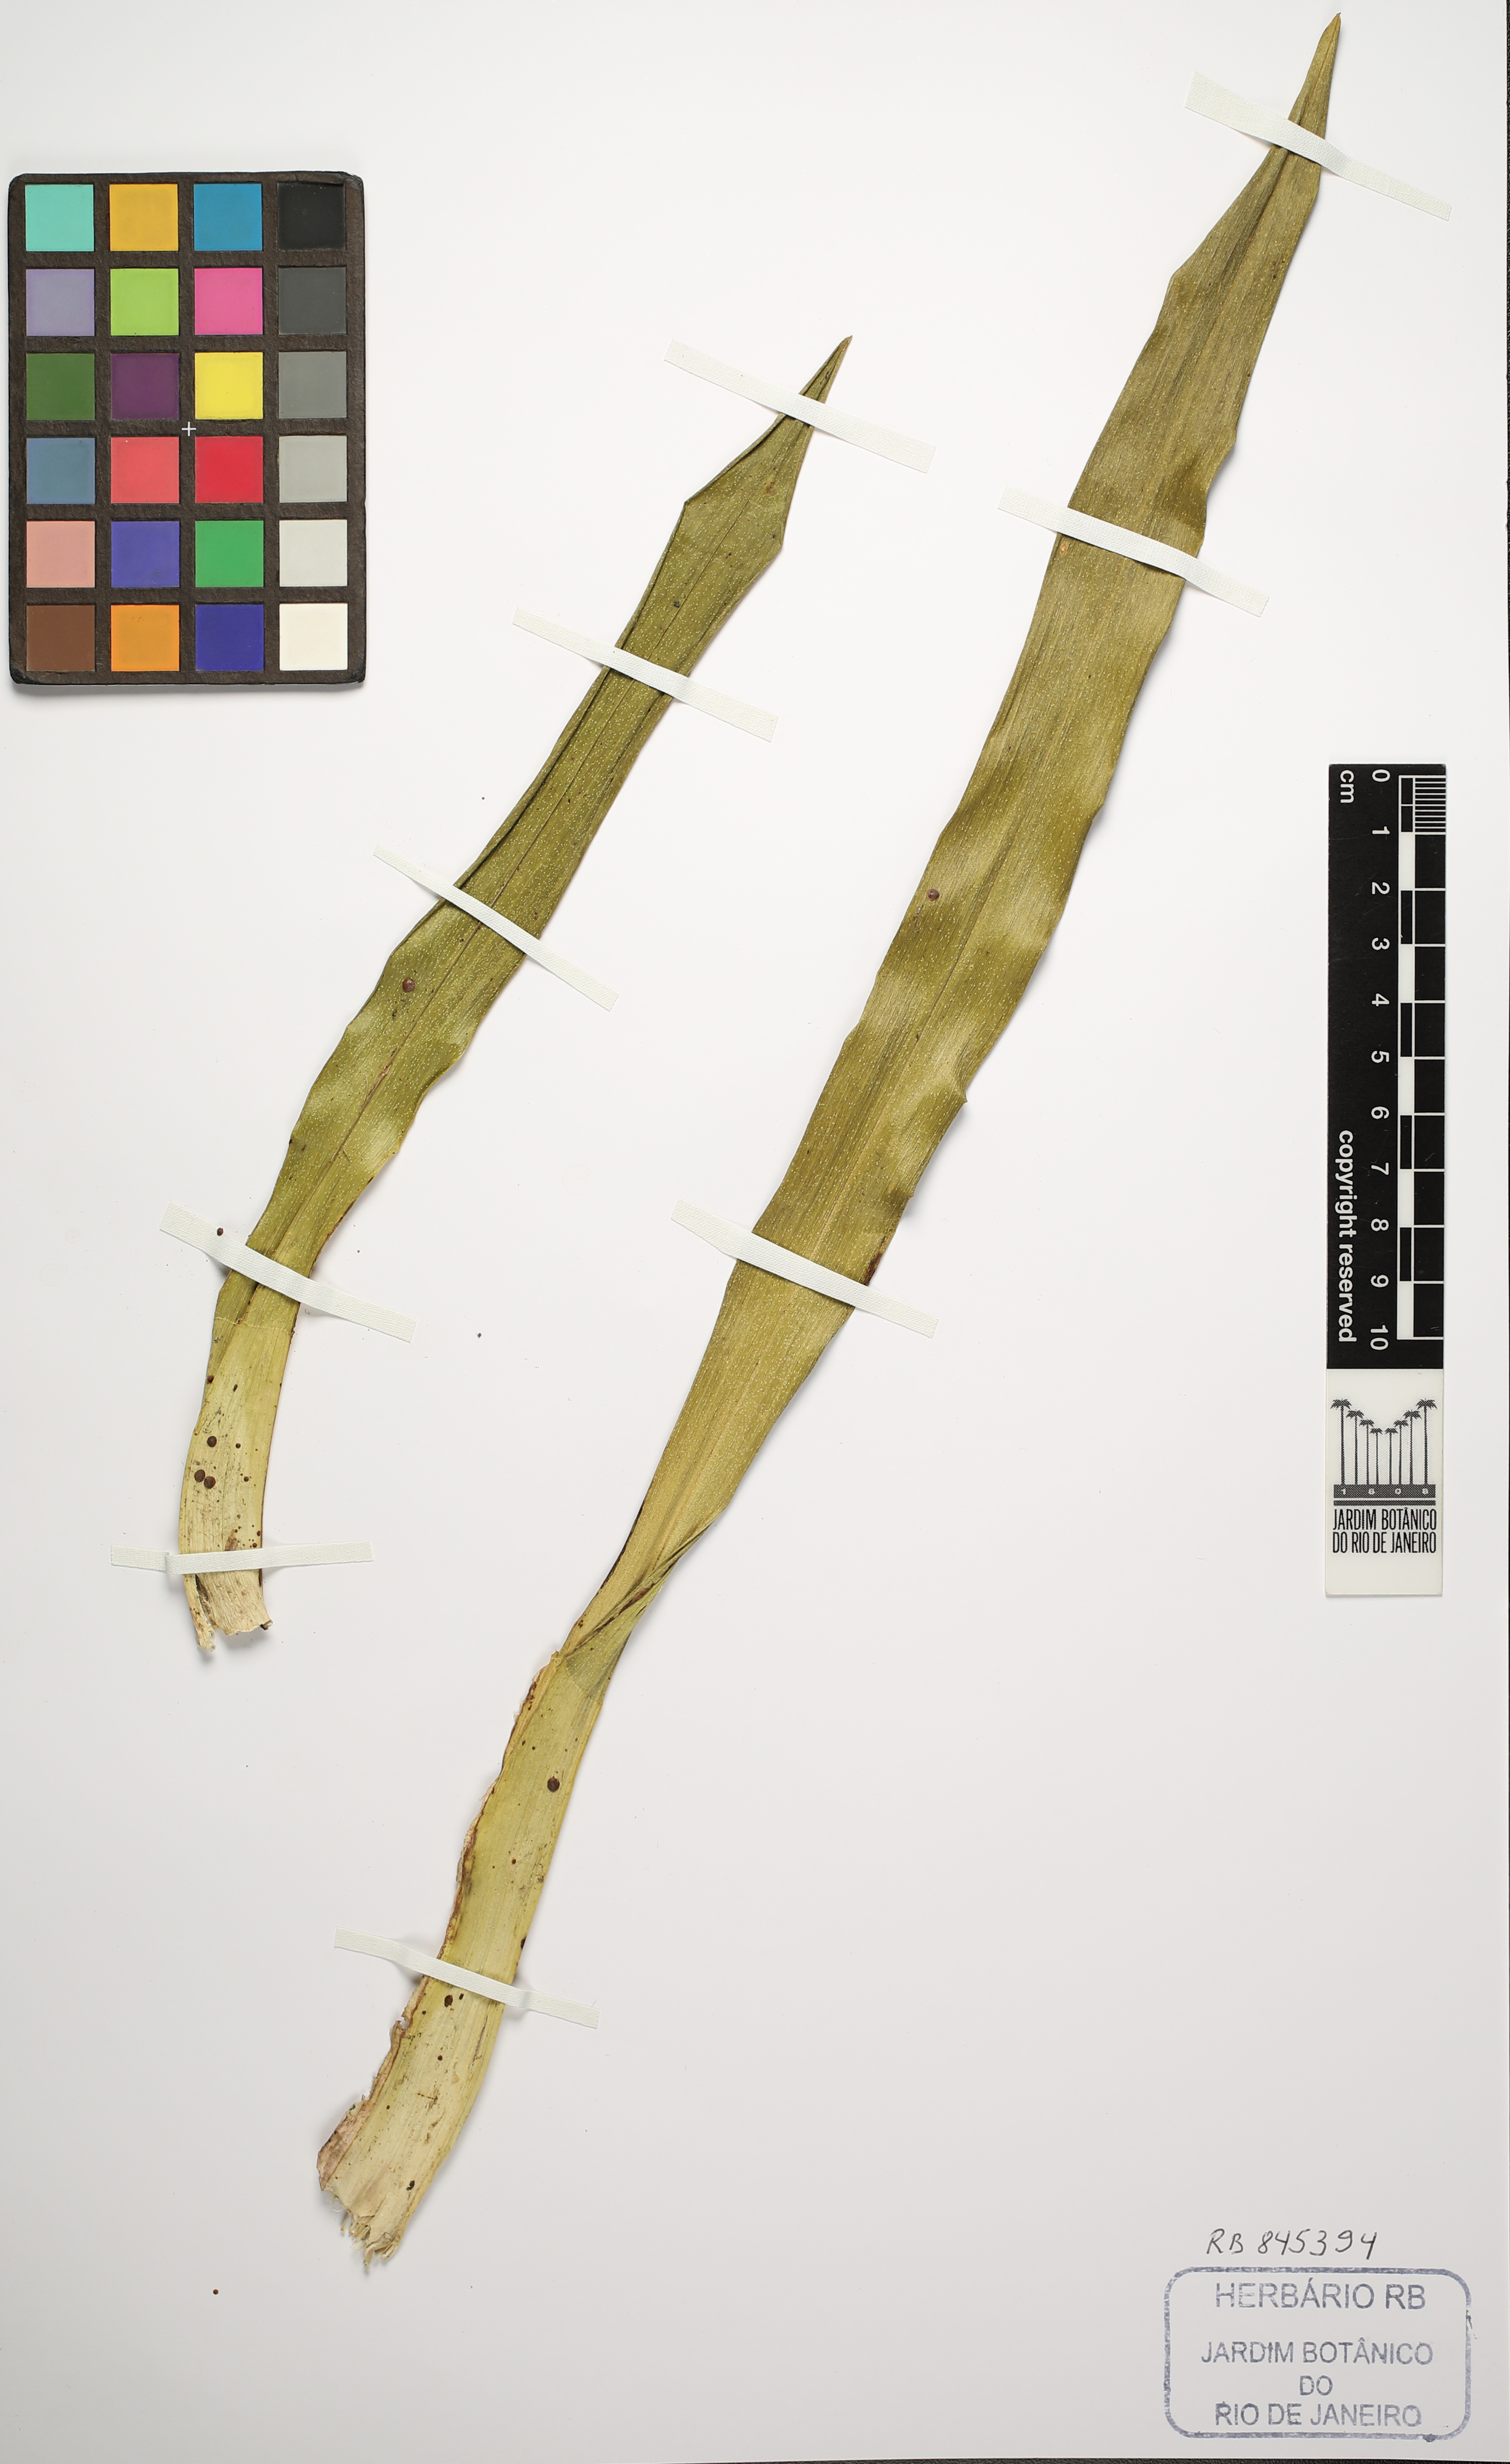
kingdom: Plantae
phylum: Tracheophyta
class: Liliopsida
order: Asparagales
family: Orchidaceae
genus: Oncidium
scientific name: Oncidium baueri
